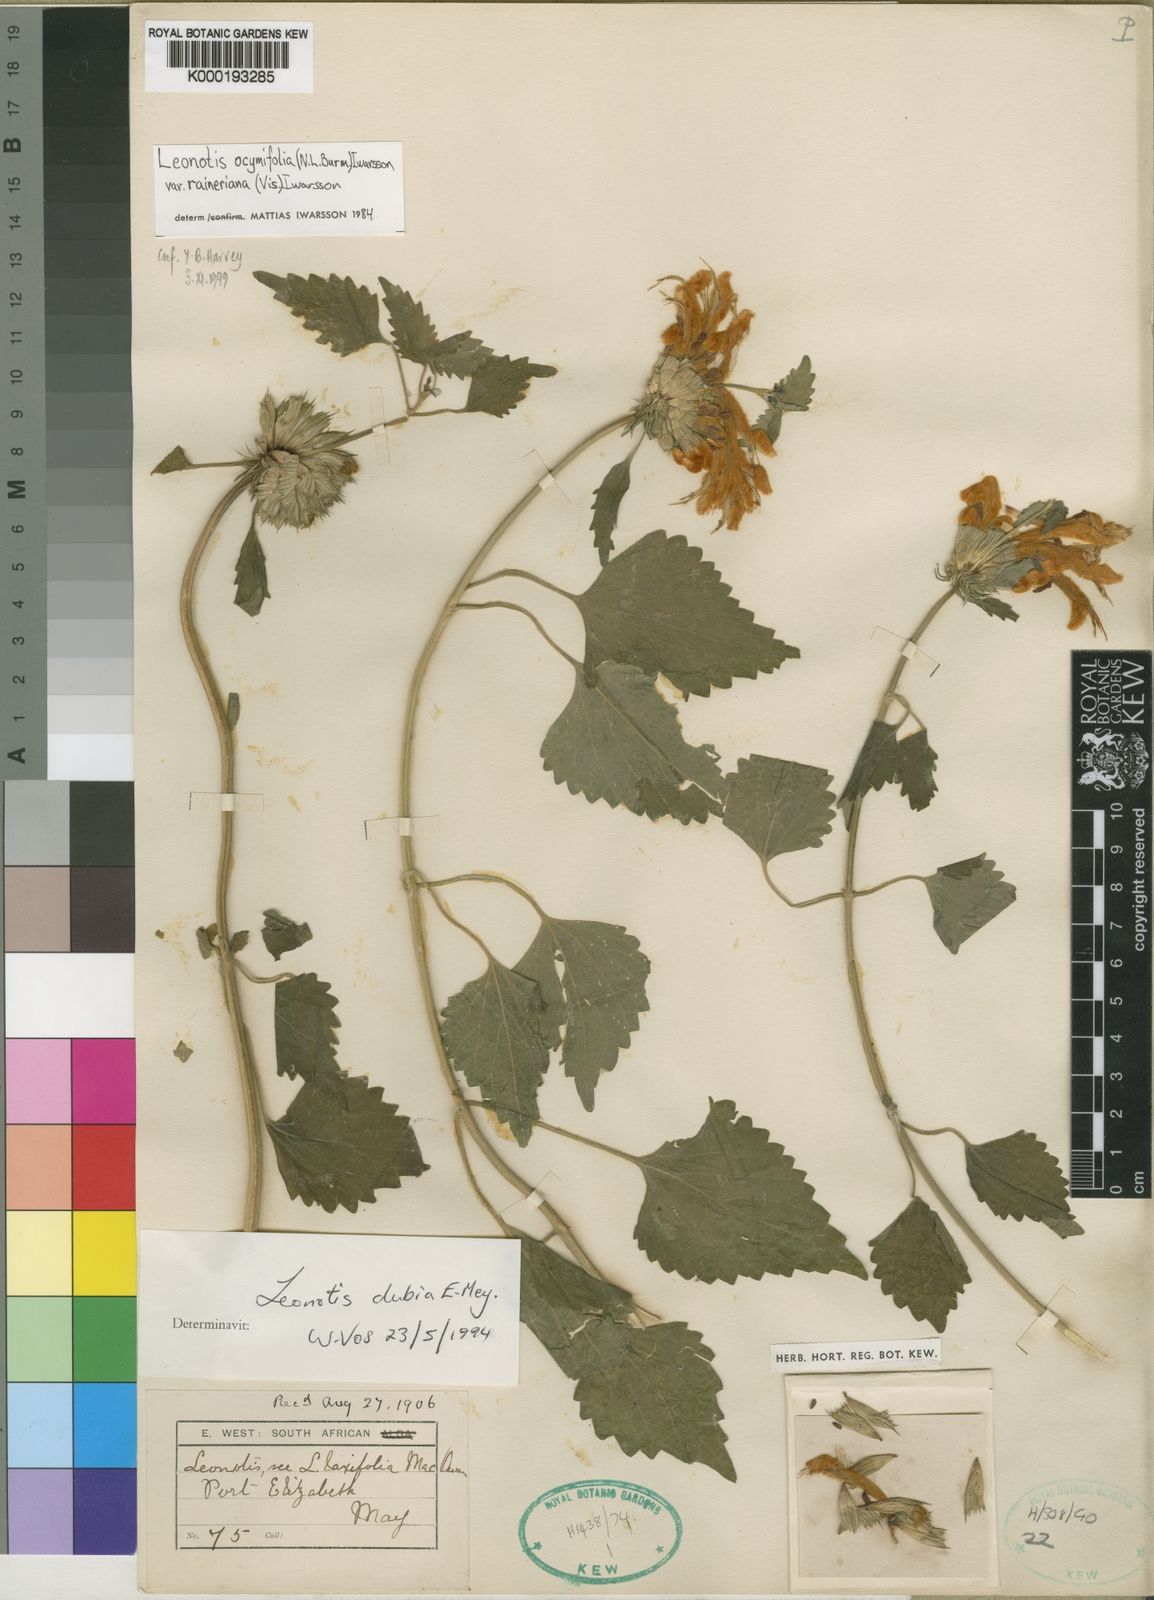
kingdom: Plantae
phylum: Tracheophyta
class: Magnoliopsida
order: Lamiales
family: Lamiaceae
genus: Leonotis
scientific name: Leonotis ocymifolia
